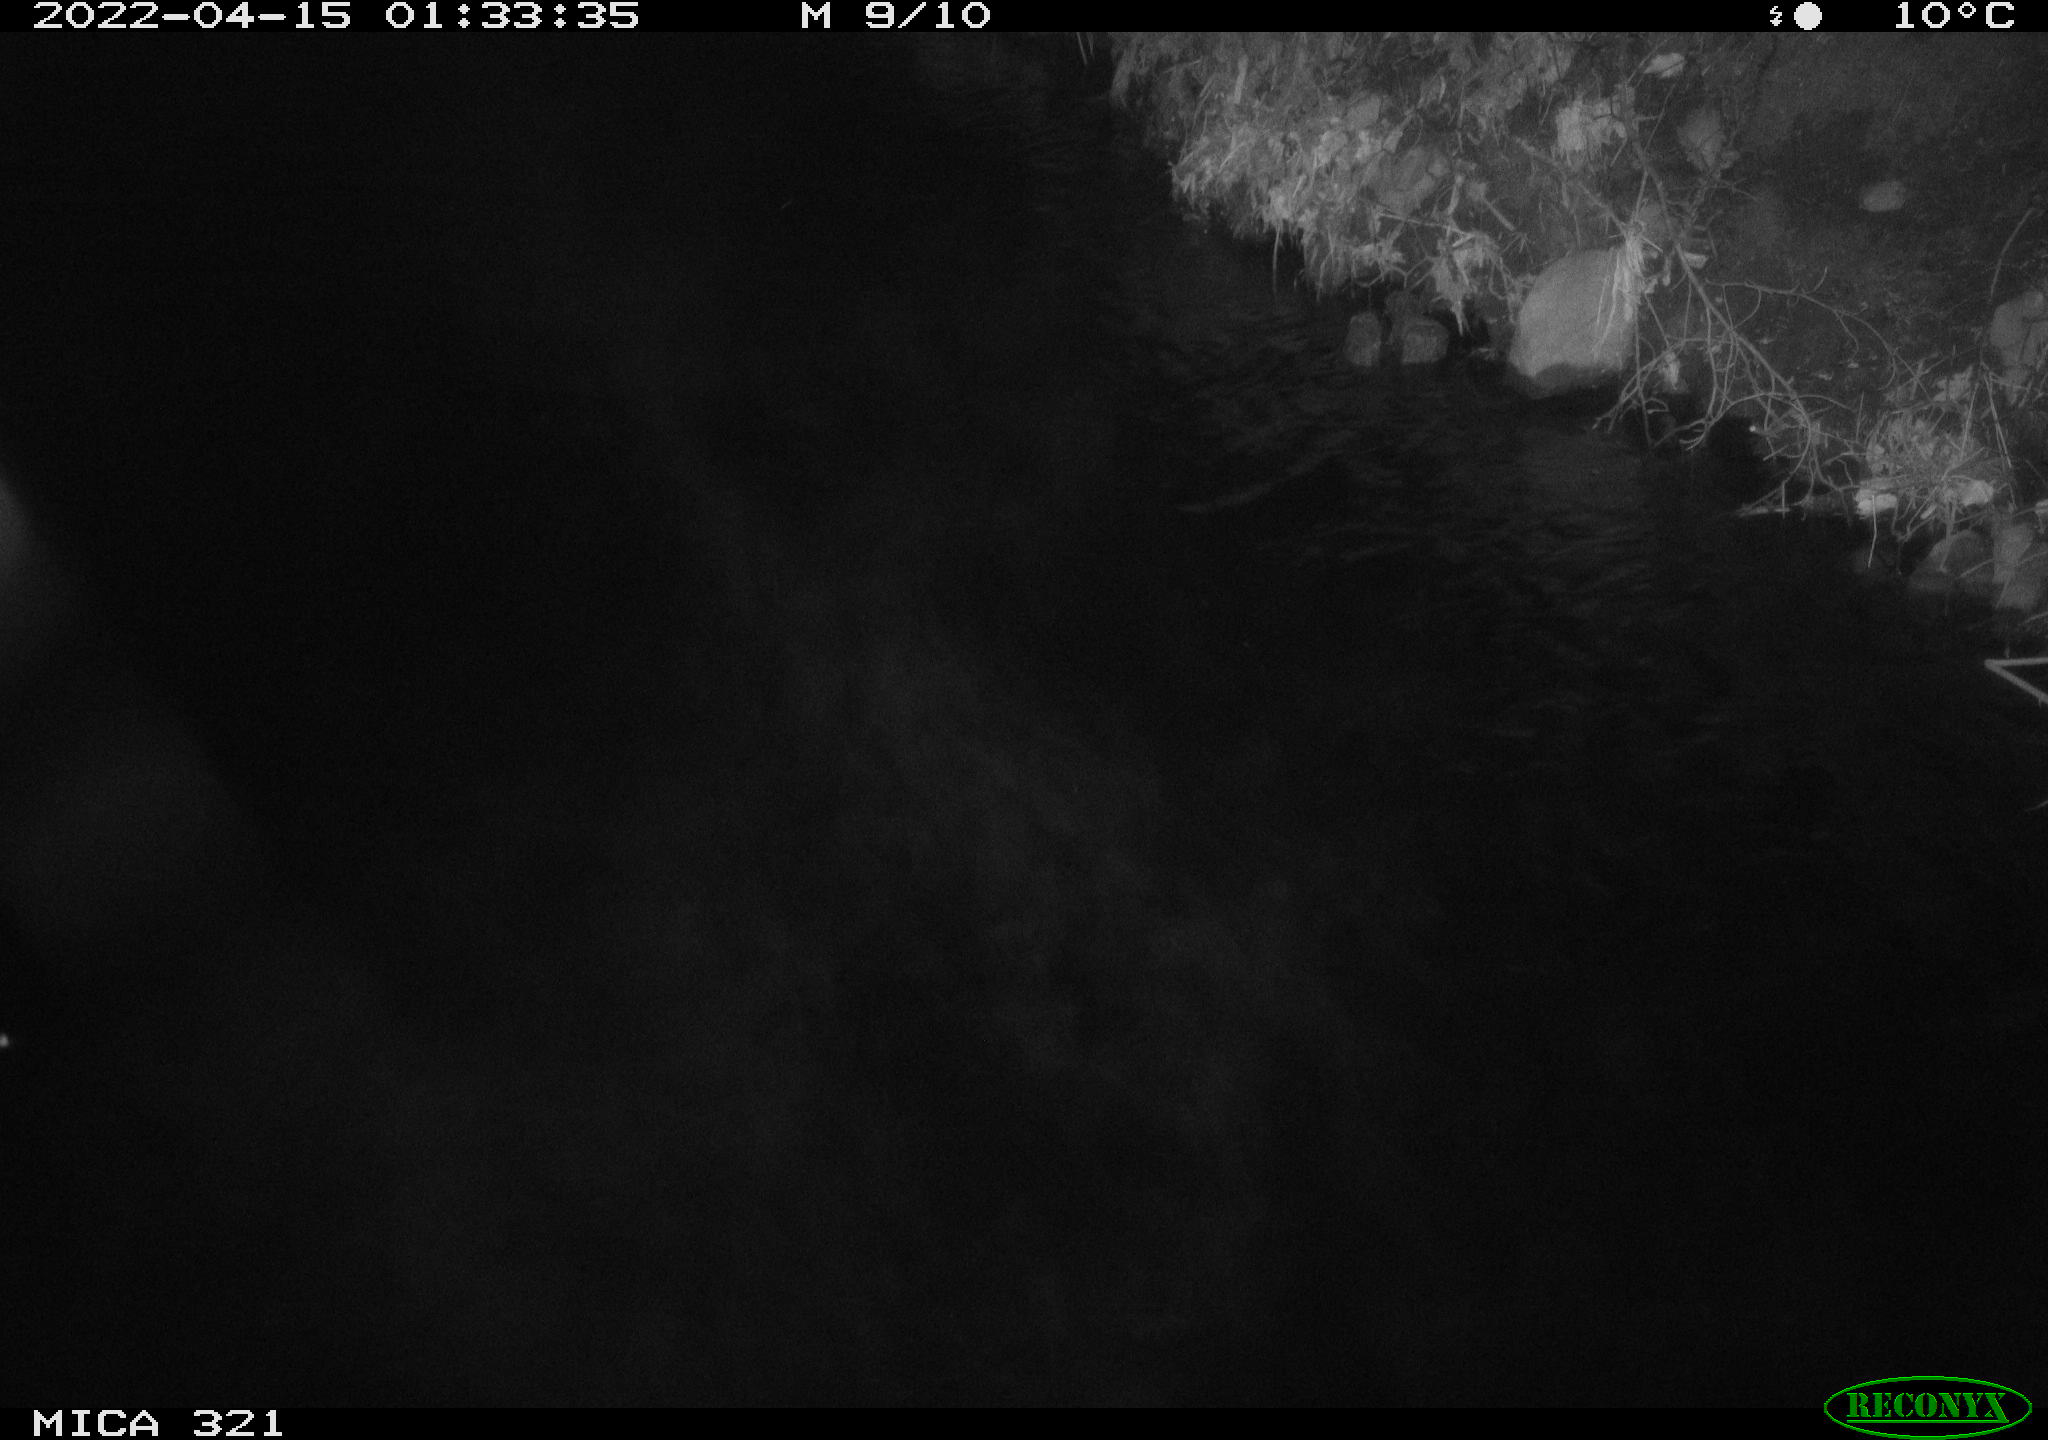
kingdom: Animalia
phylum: Chordata
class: Aves
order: Anseriformes
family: Anatidae
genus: Anas
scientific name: Anas platyrhynchos
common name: Mallard
